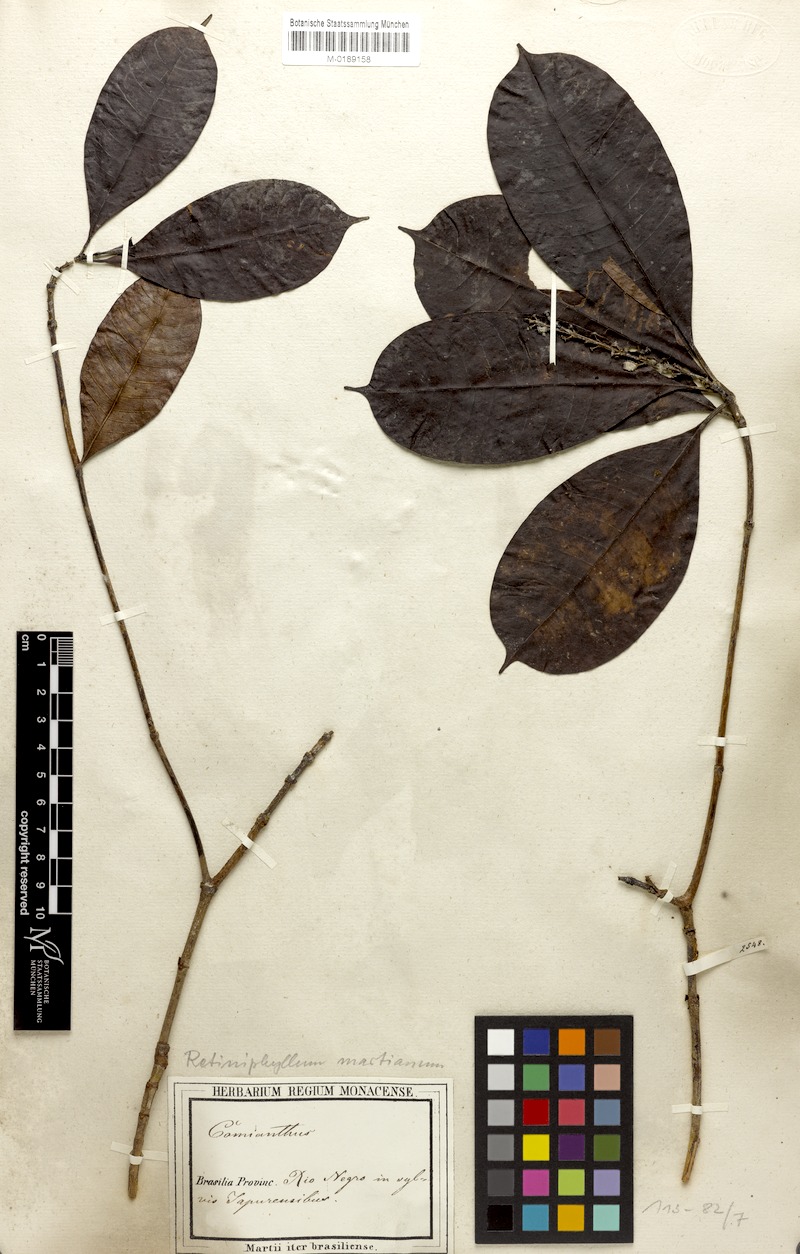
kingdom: Plantae
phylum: Tracheophyta
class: Magnoliopsida
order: Gentianales
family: Rubiaceae
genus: Retiniphyllum
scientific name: Retiniphyllum concolor
